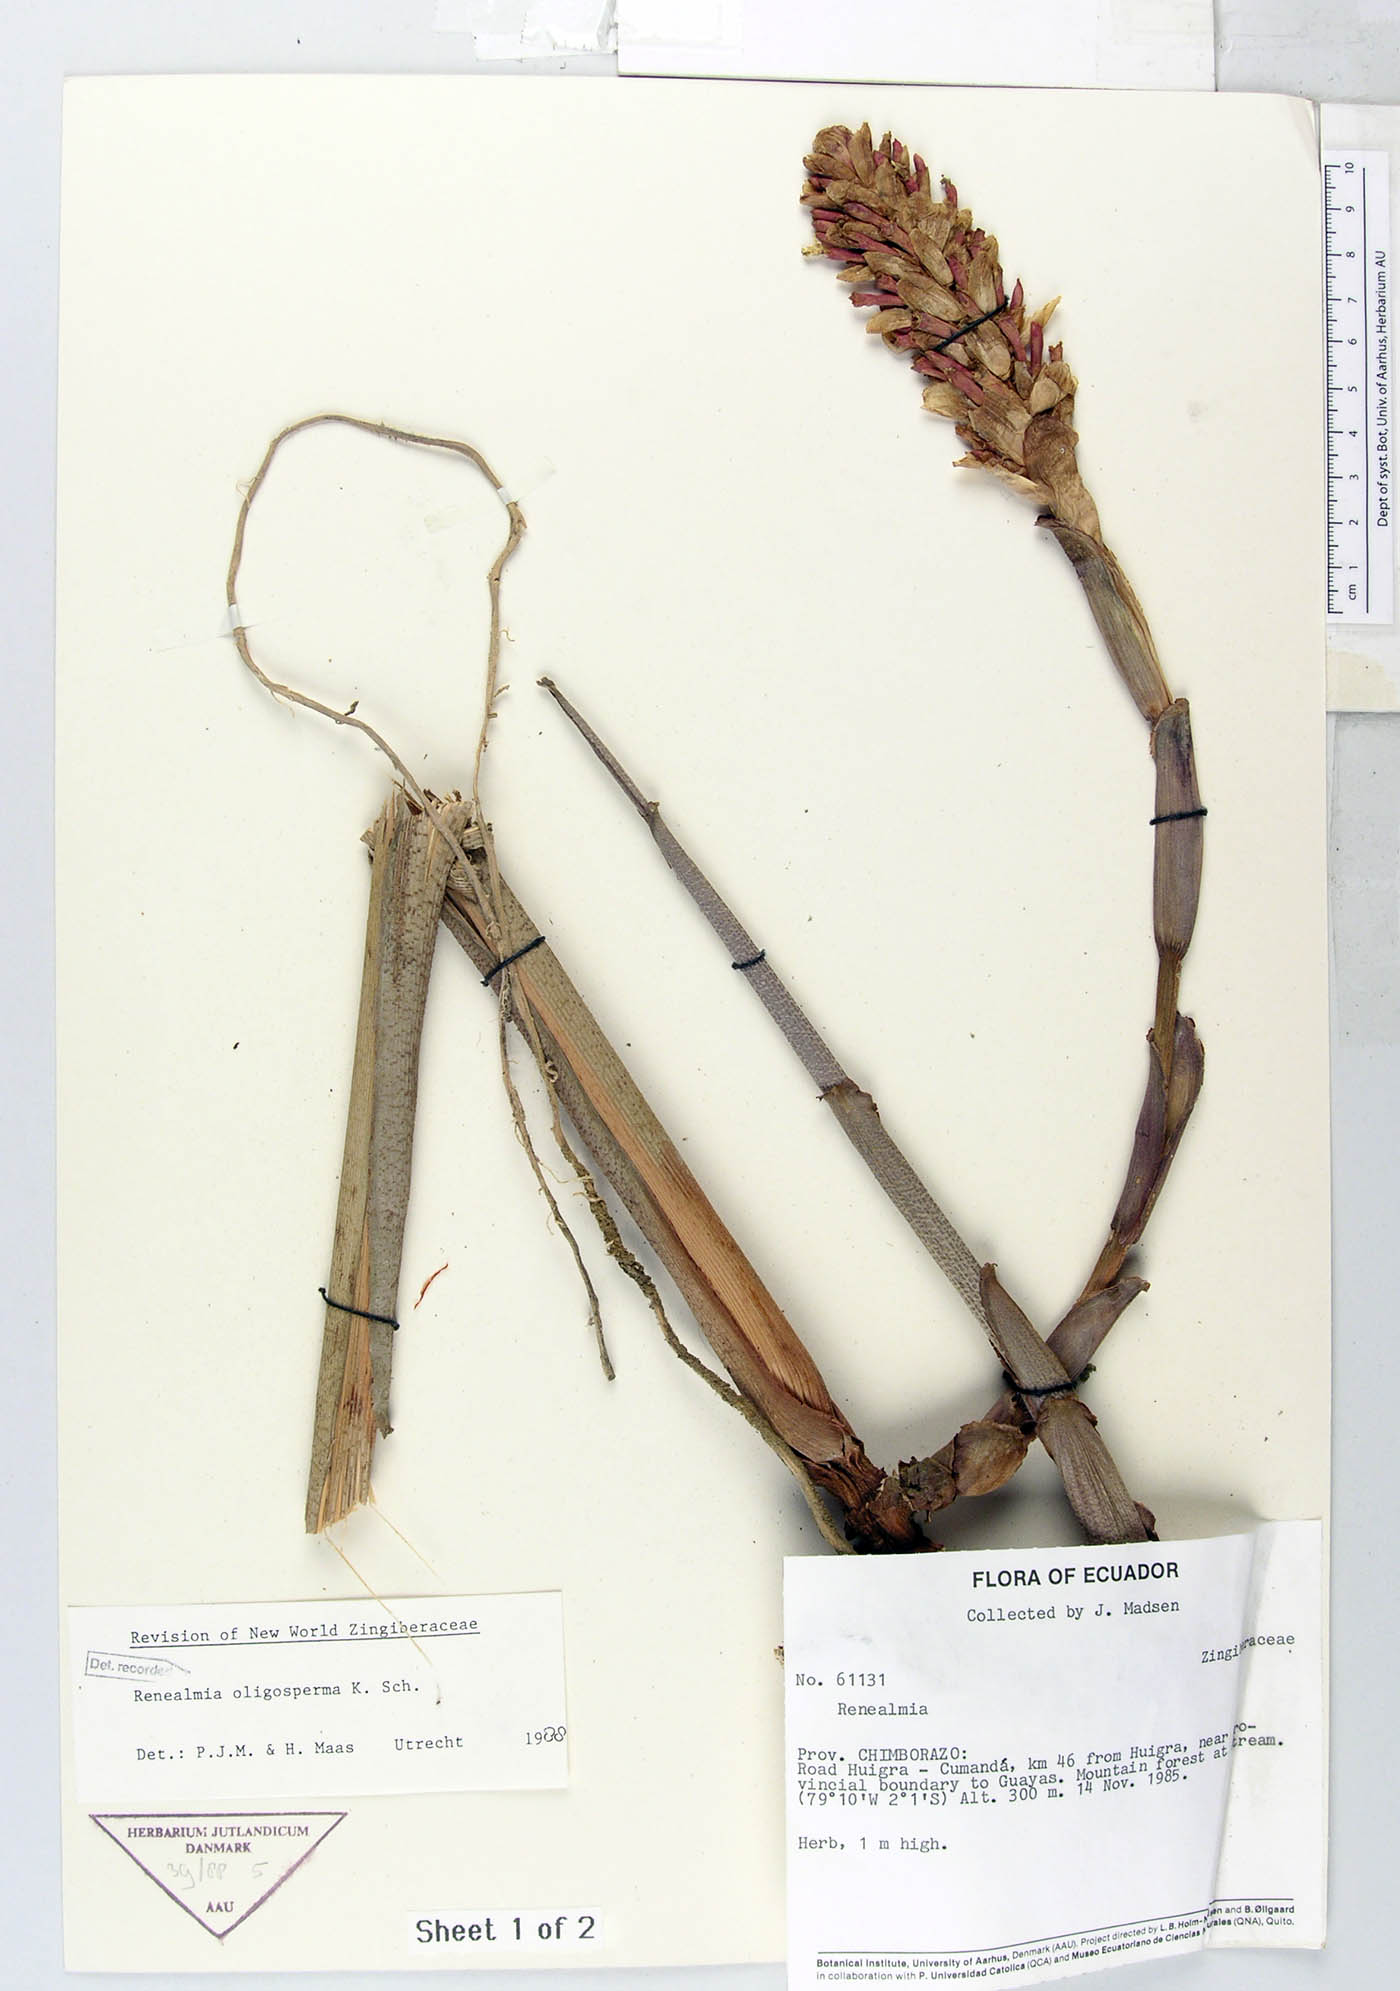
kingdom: Plantae
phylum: Tracheophyta
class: Liliopsida
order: Zingiberales
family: Zingiberaceae
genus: Renealmia
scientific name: Renealmia oligosperma
